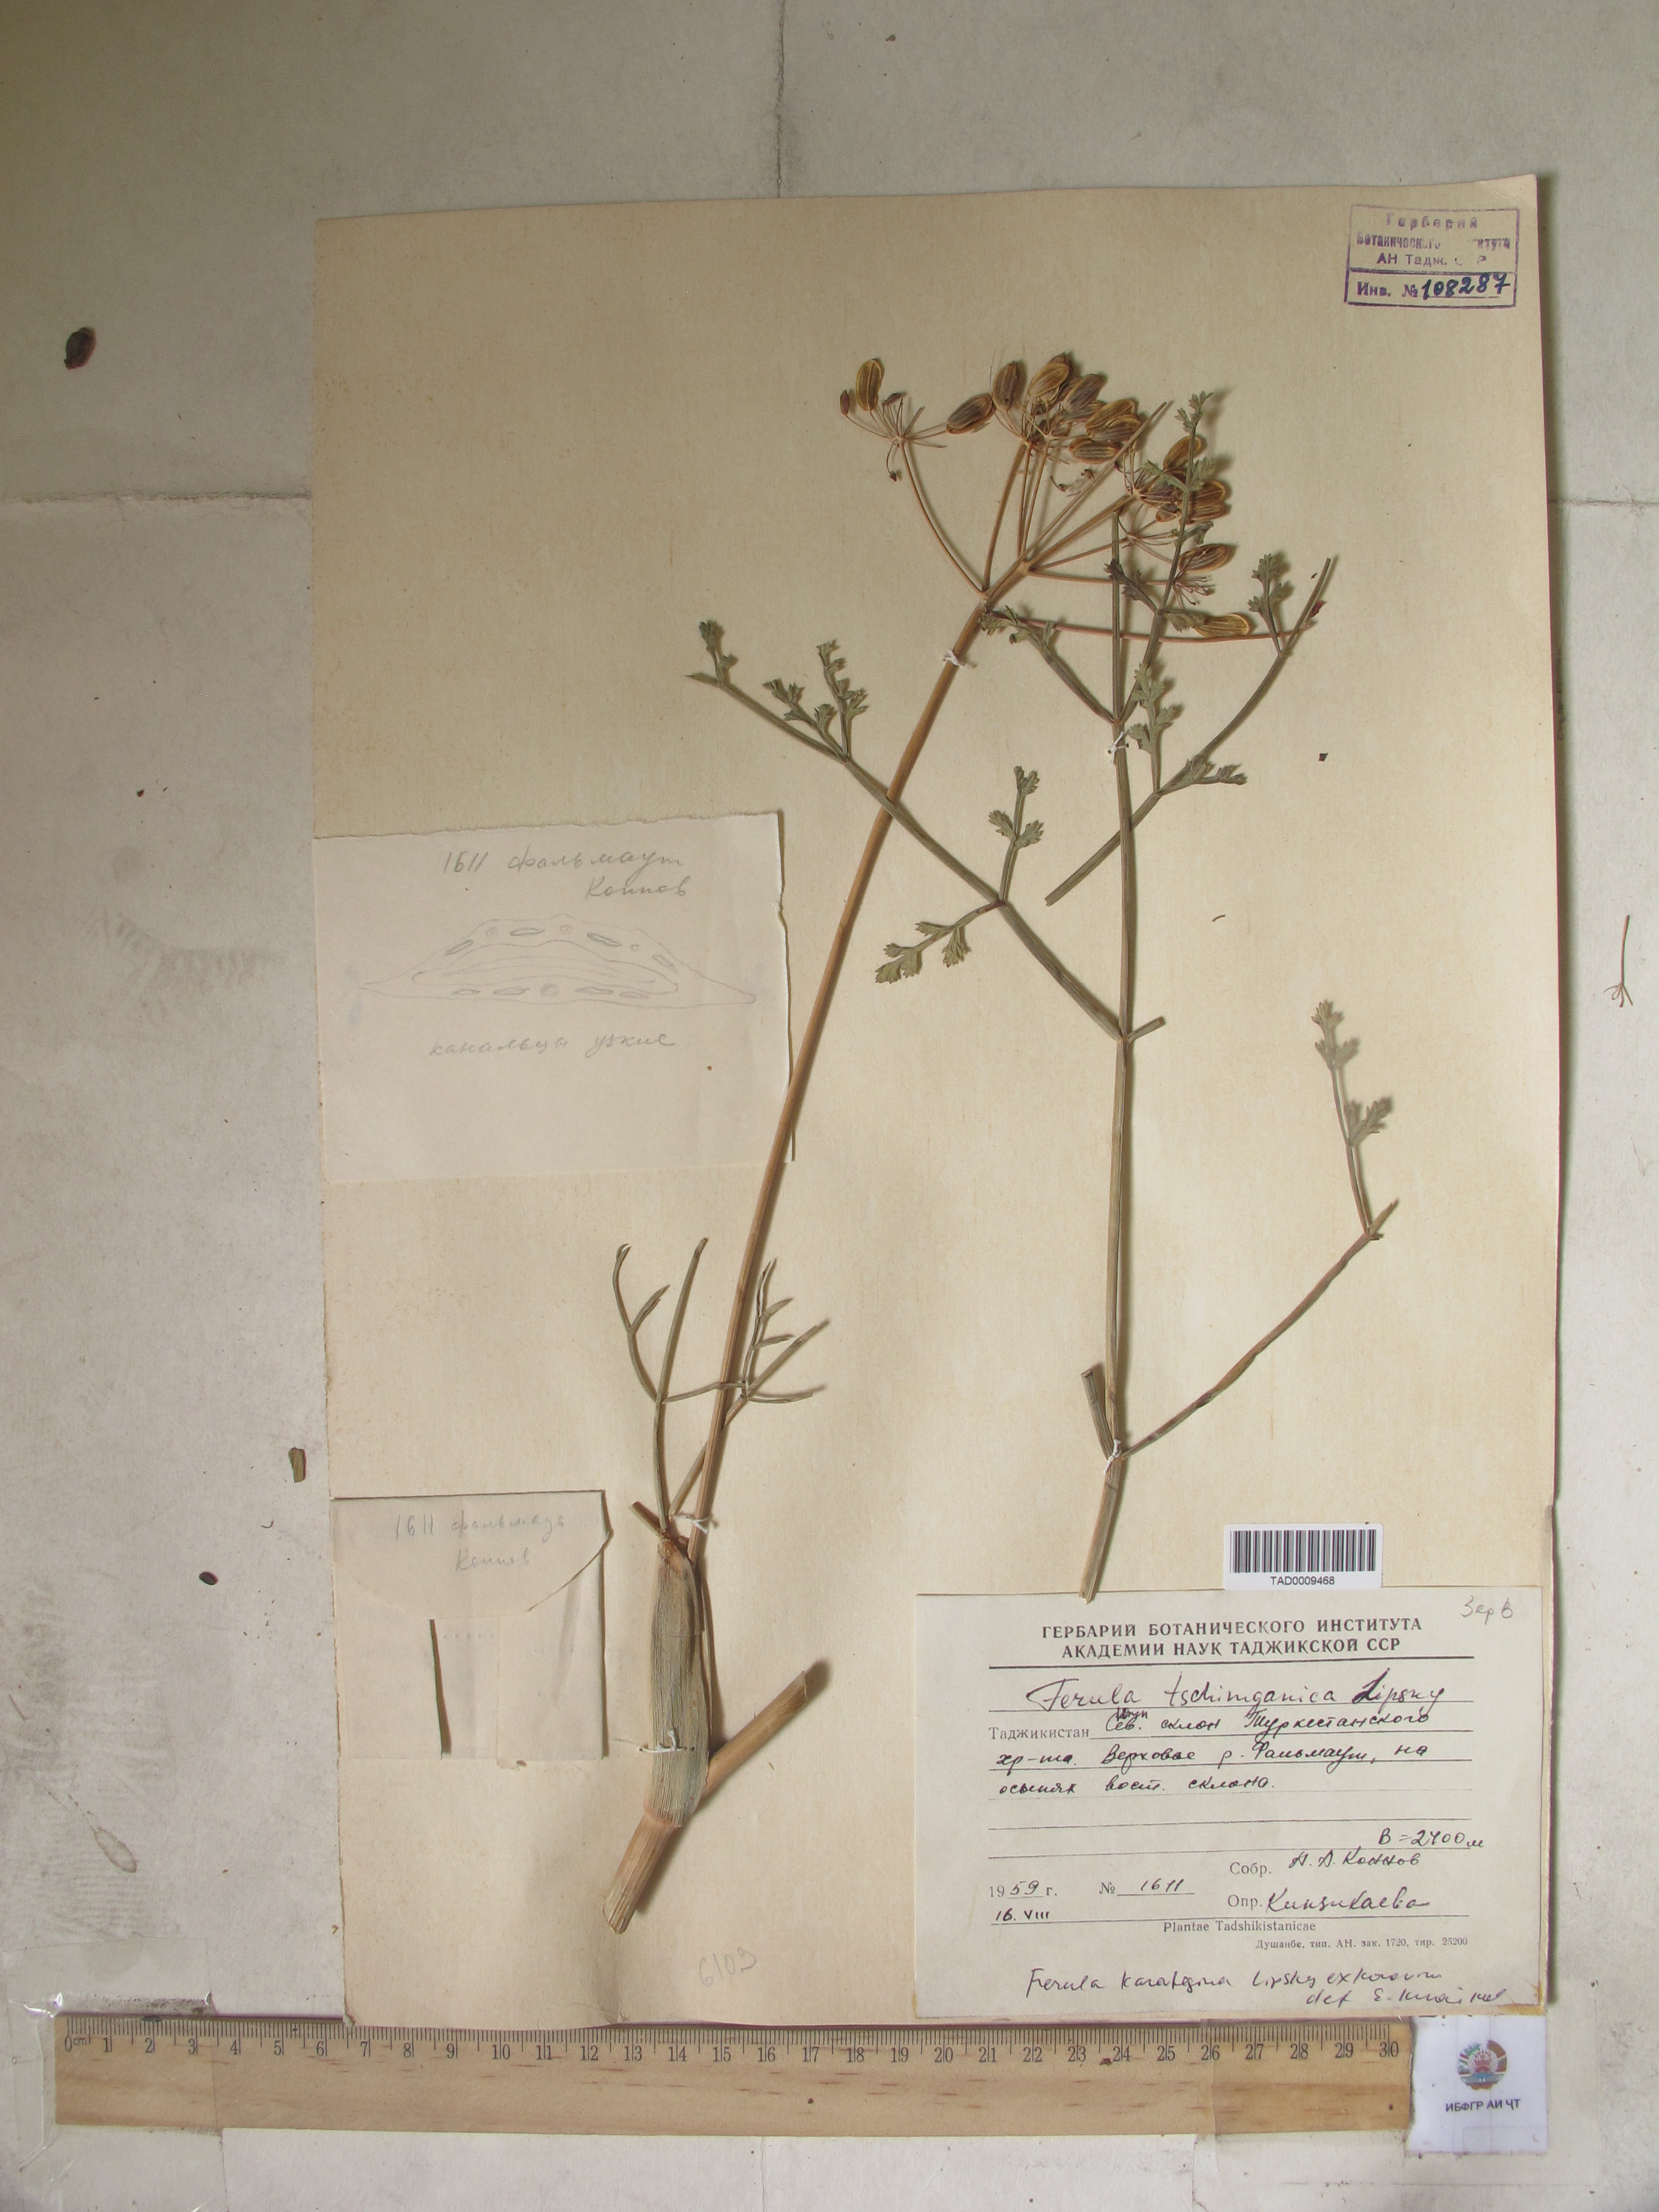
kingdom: Plantae
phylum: Tracheophyta
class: Magnoliopsida
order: Apiales
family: Apiaceae
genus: Ferula
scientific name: Ferula tschimganica
